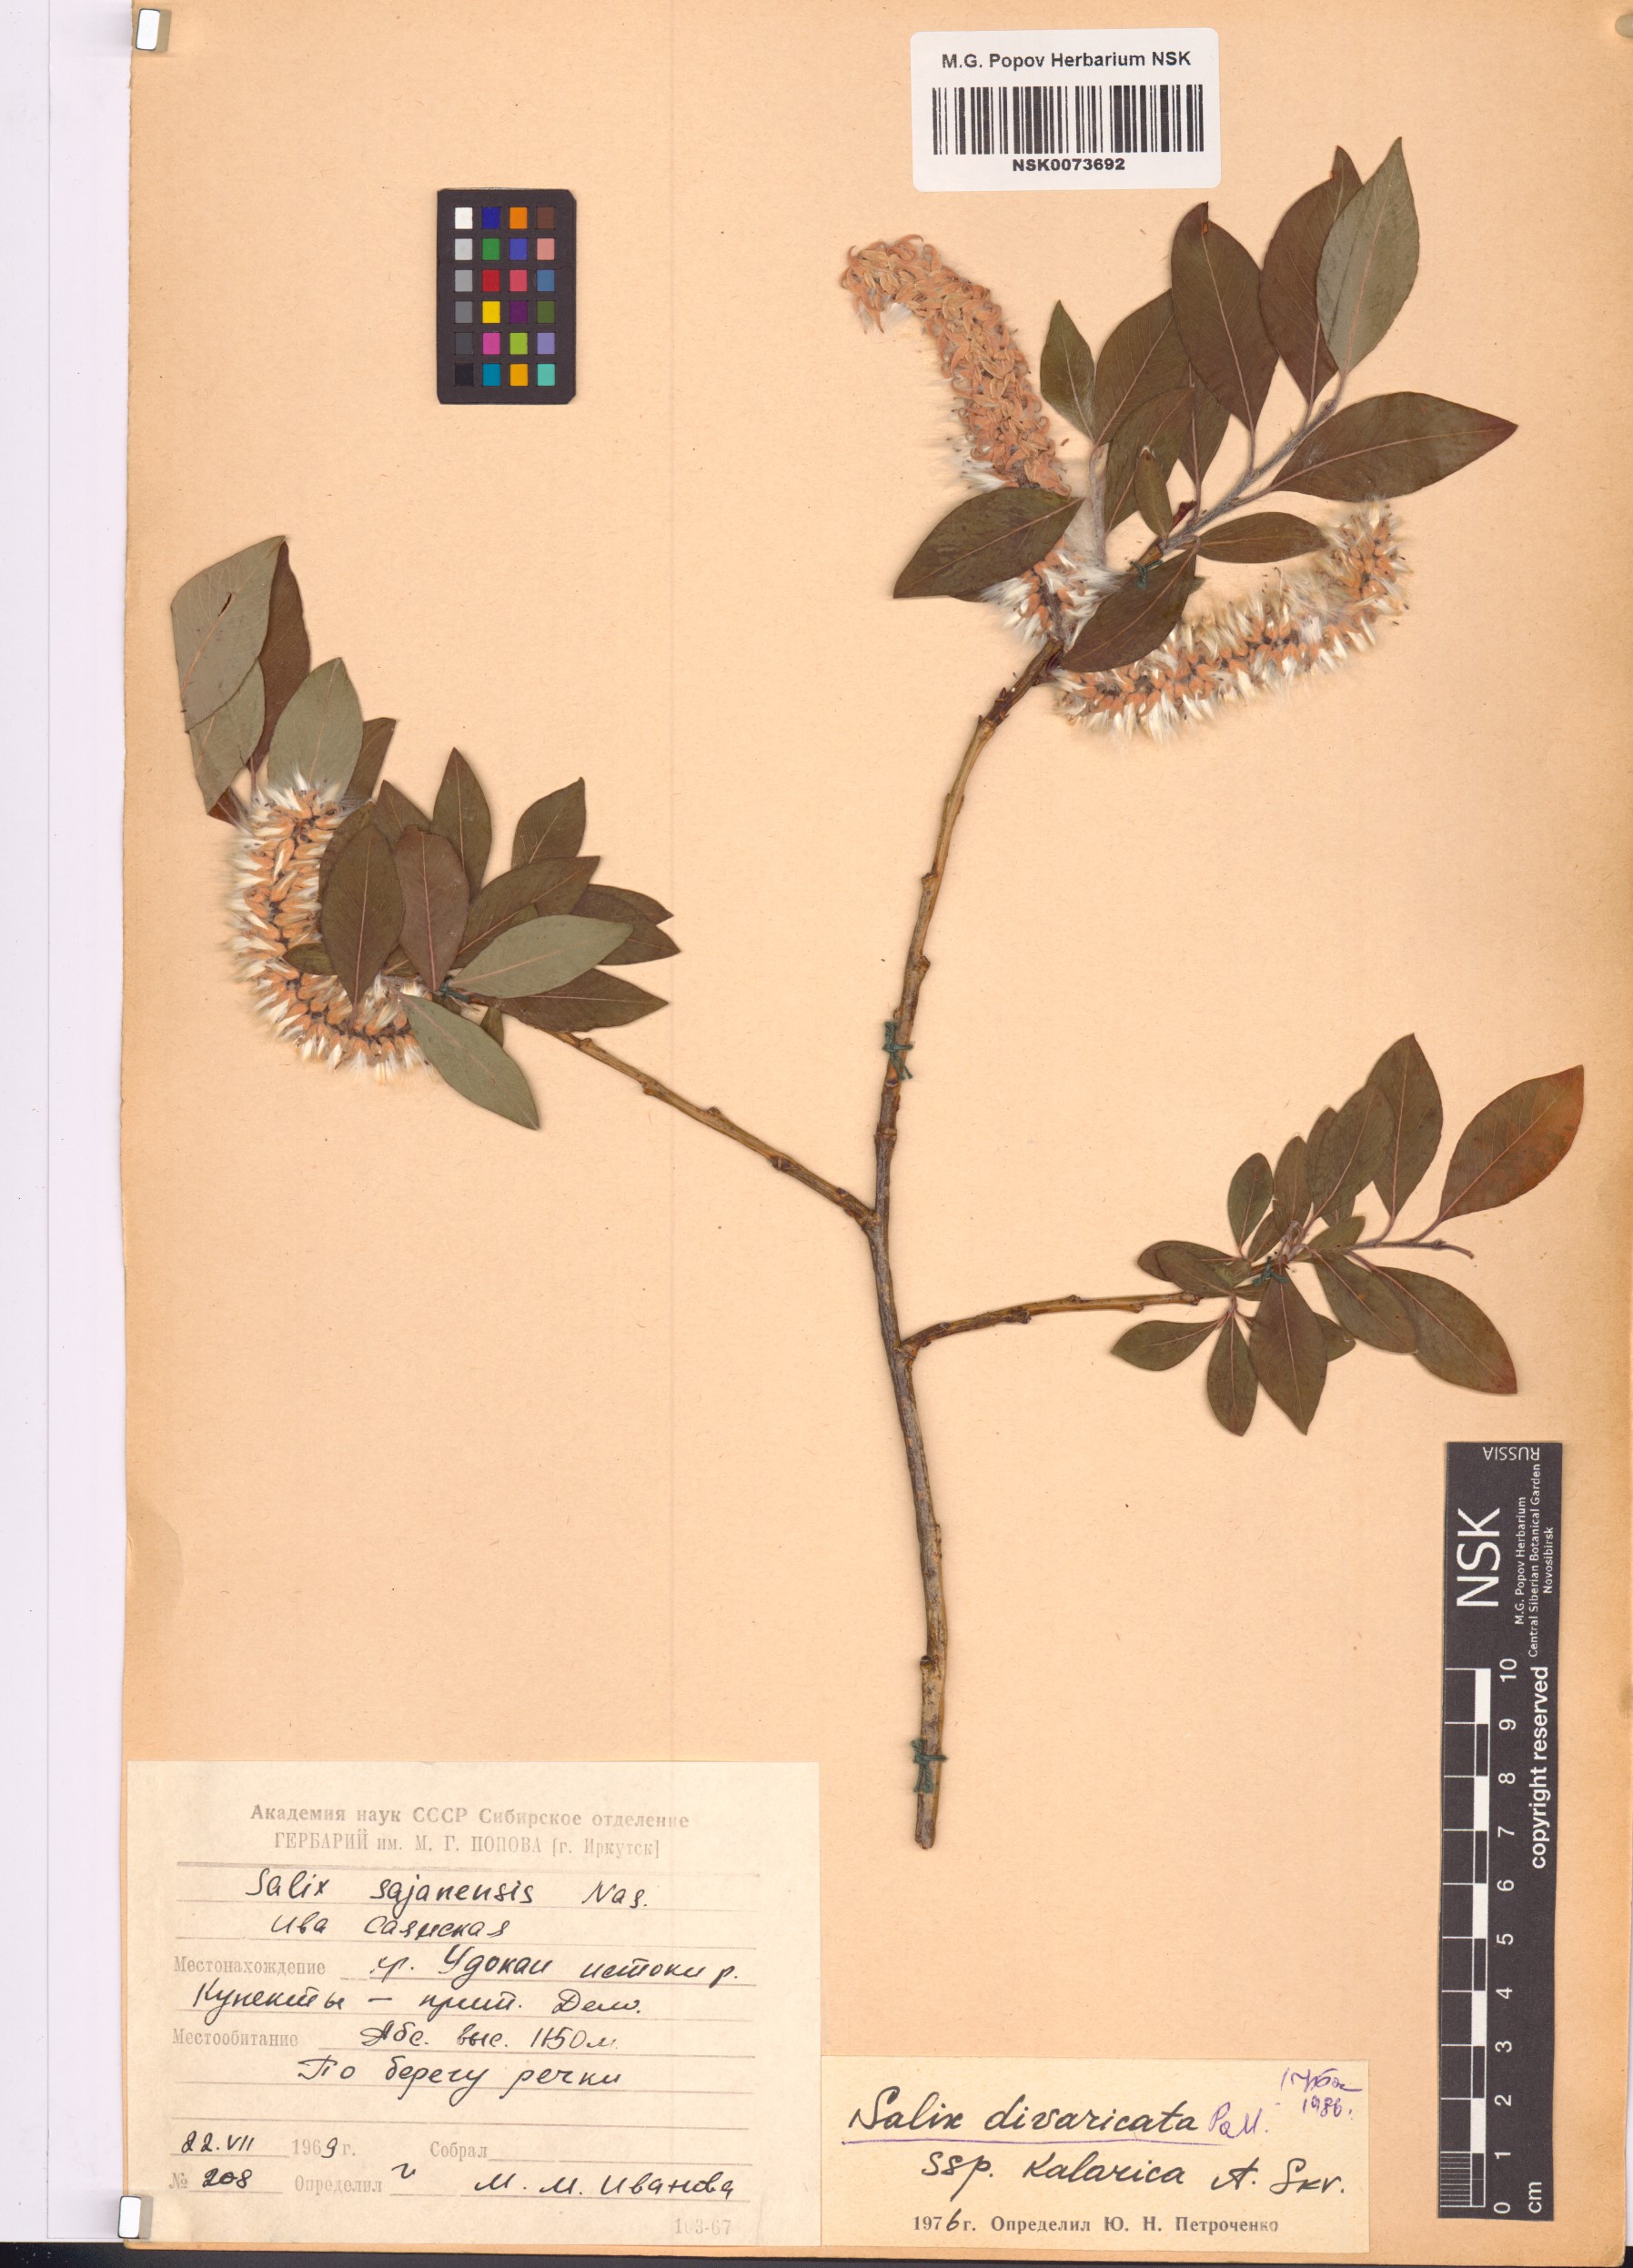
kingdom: Plantae
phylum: Tracheophyta
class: Magnoliopsida
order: Malpighiales
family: Salicaceae
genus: Salix
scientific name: Salix kalarica
